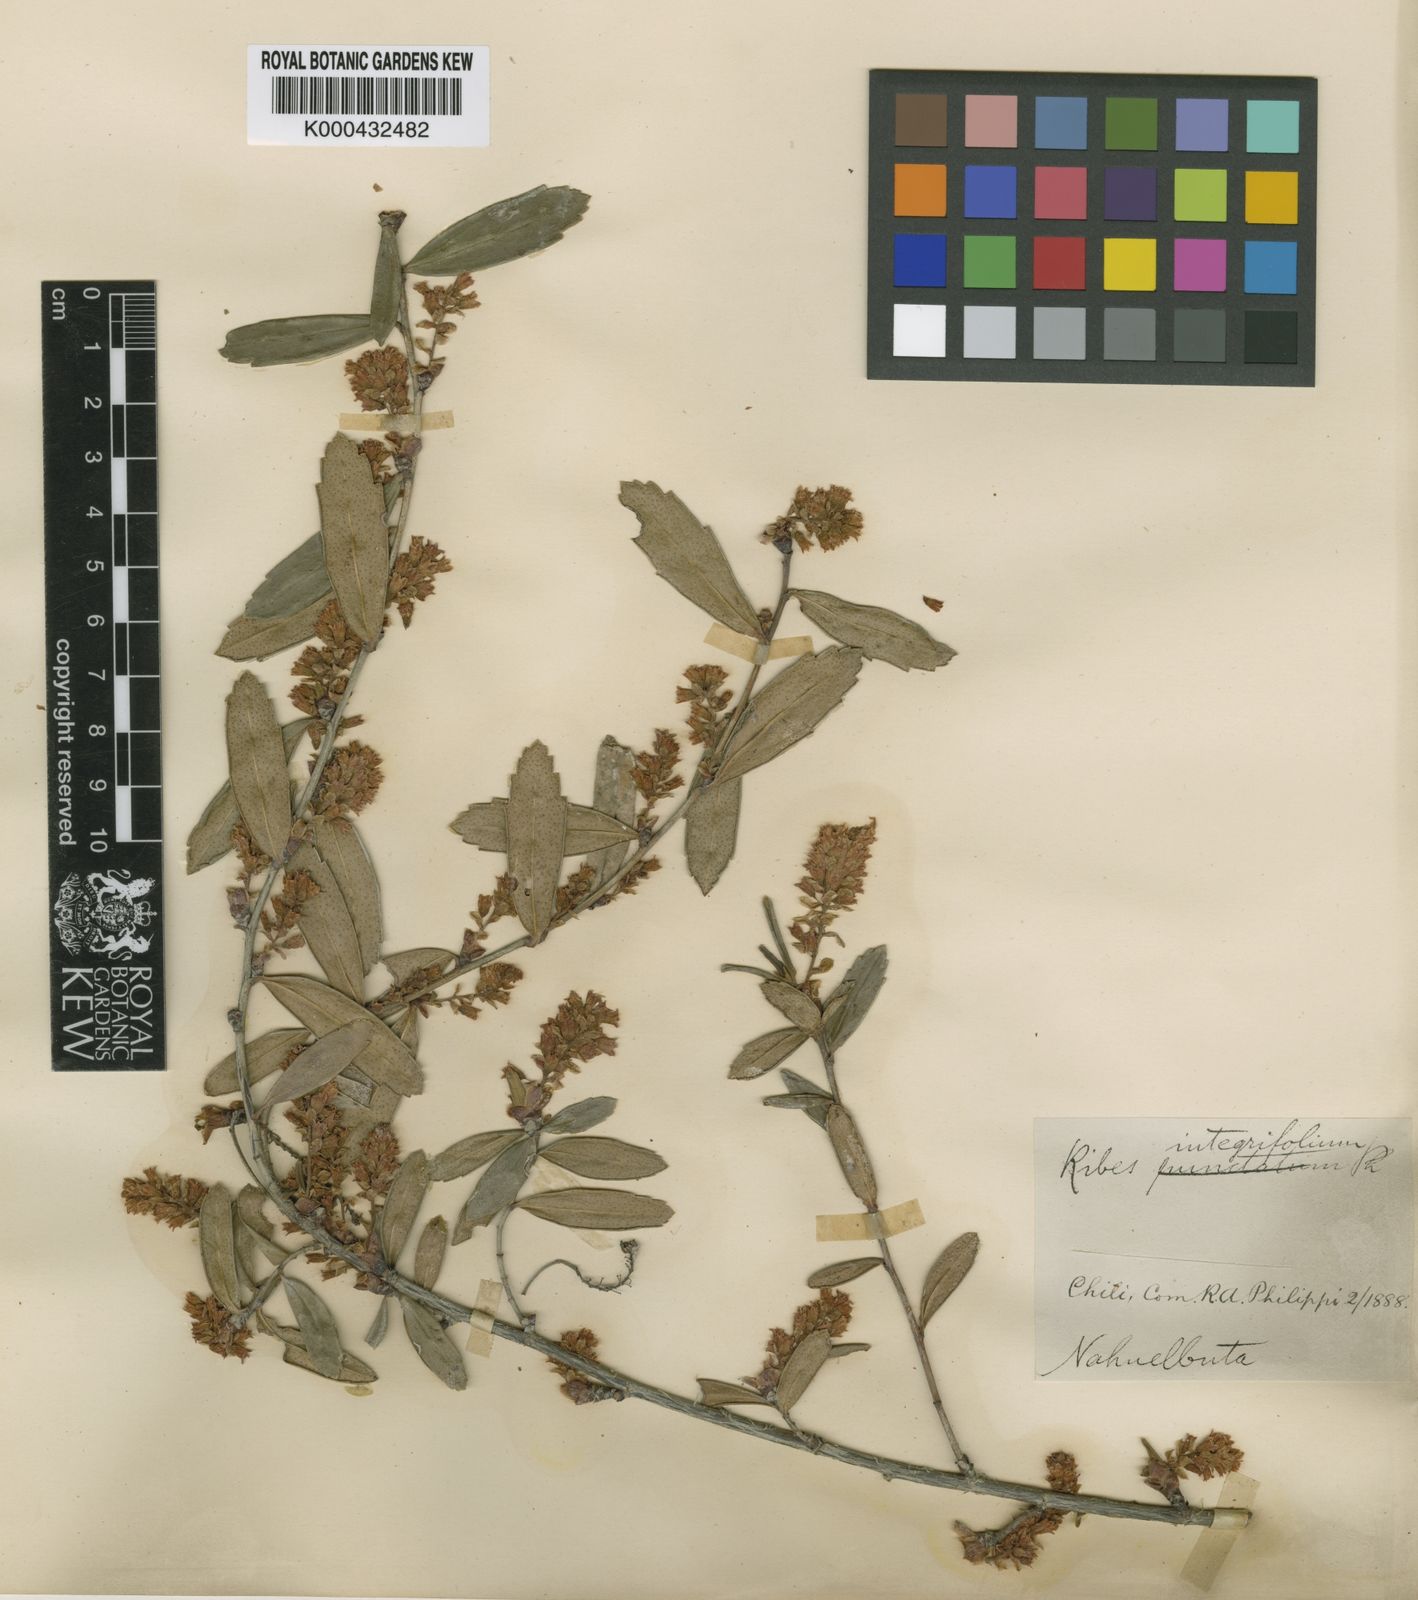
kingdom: Plantae
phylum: Tracheophyta
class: Magnoliopsida
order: Saxifragales
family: Grossulariaceae
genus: Ribes
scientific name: Ribes integrifolium
